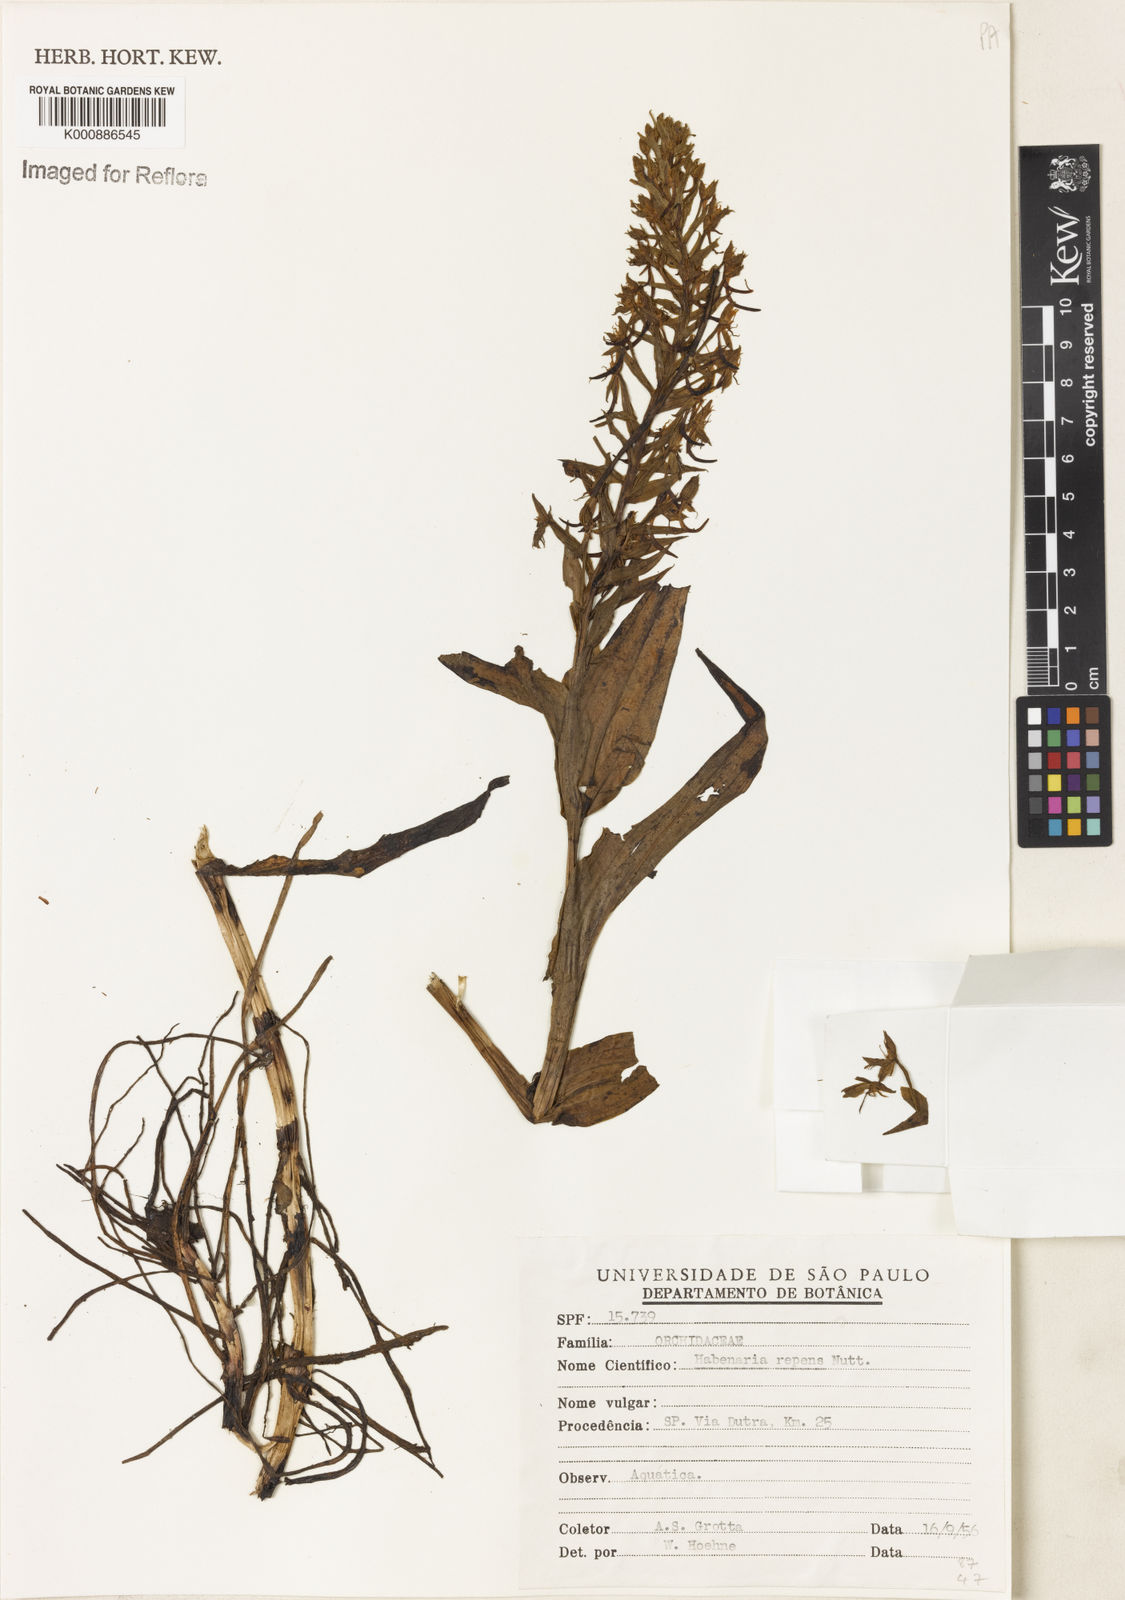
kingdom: Plantae
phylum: Tracheophyta
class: Liliopsida
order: Asparagales
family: Orchidaceae
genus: Habenaria
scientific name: Habenaria
